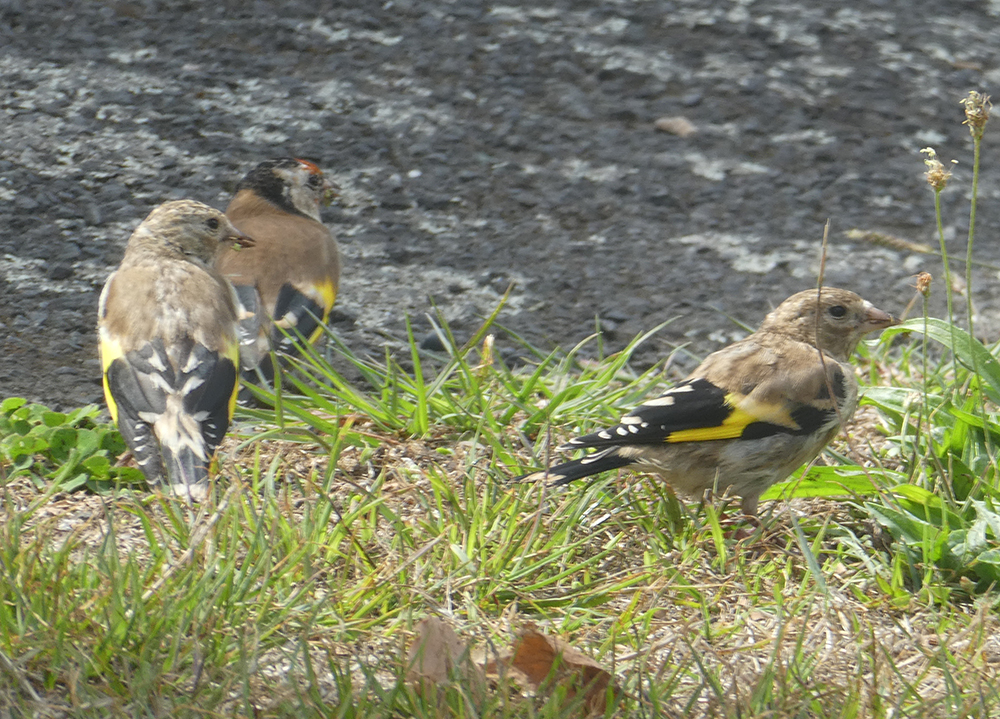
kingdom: Animalia
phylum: Chordata
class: Aves
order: Passeriformes
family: Fringillidae
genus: Carduelis
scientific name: Carduelis carduelis
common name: European goldfinch
